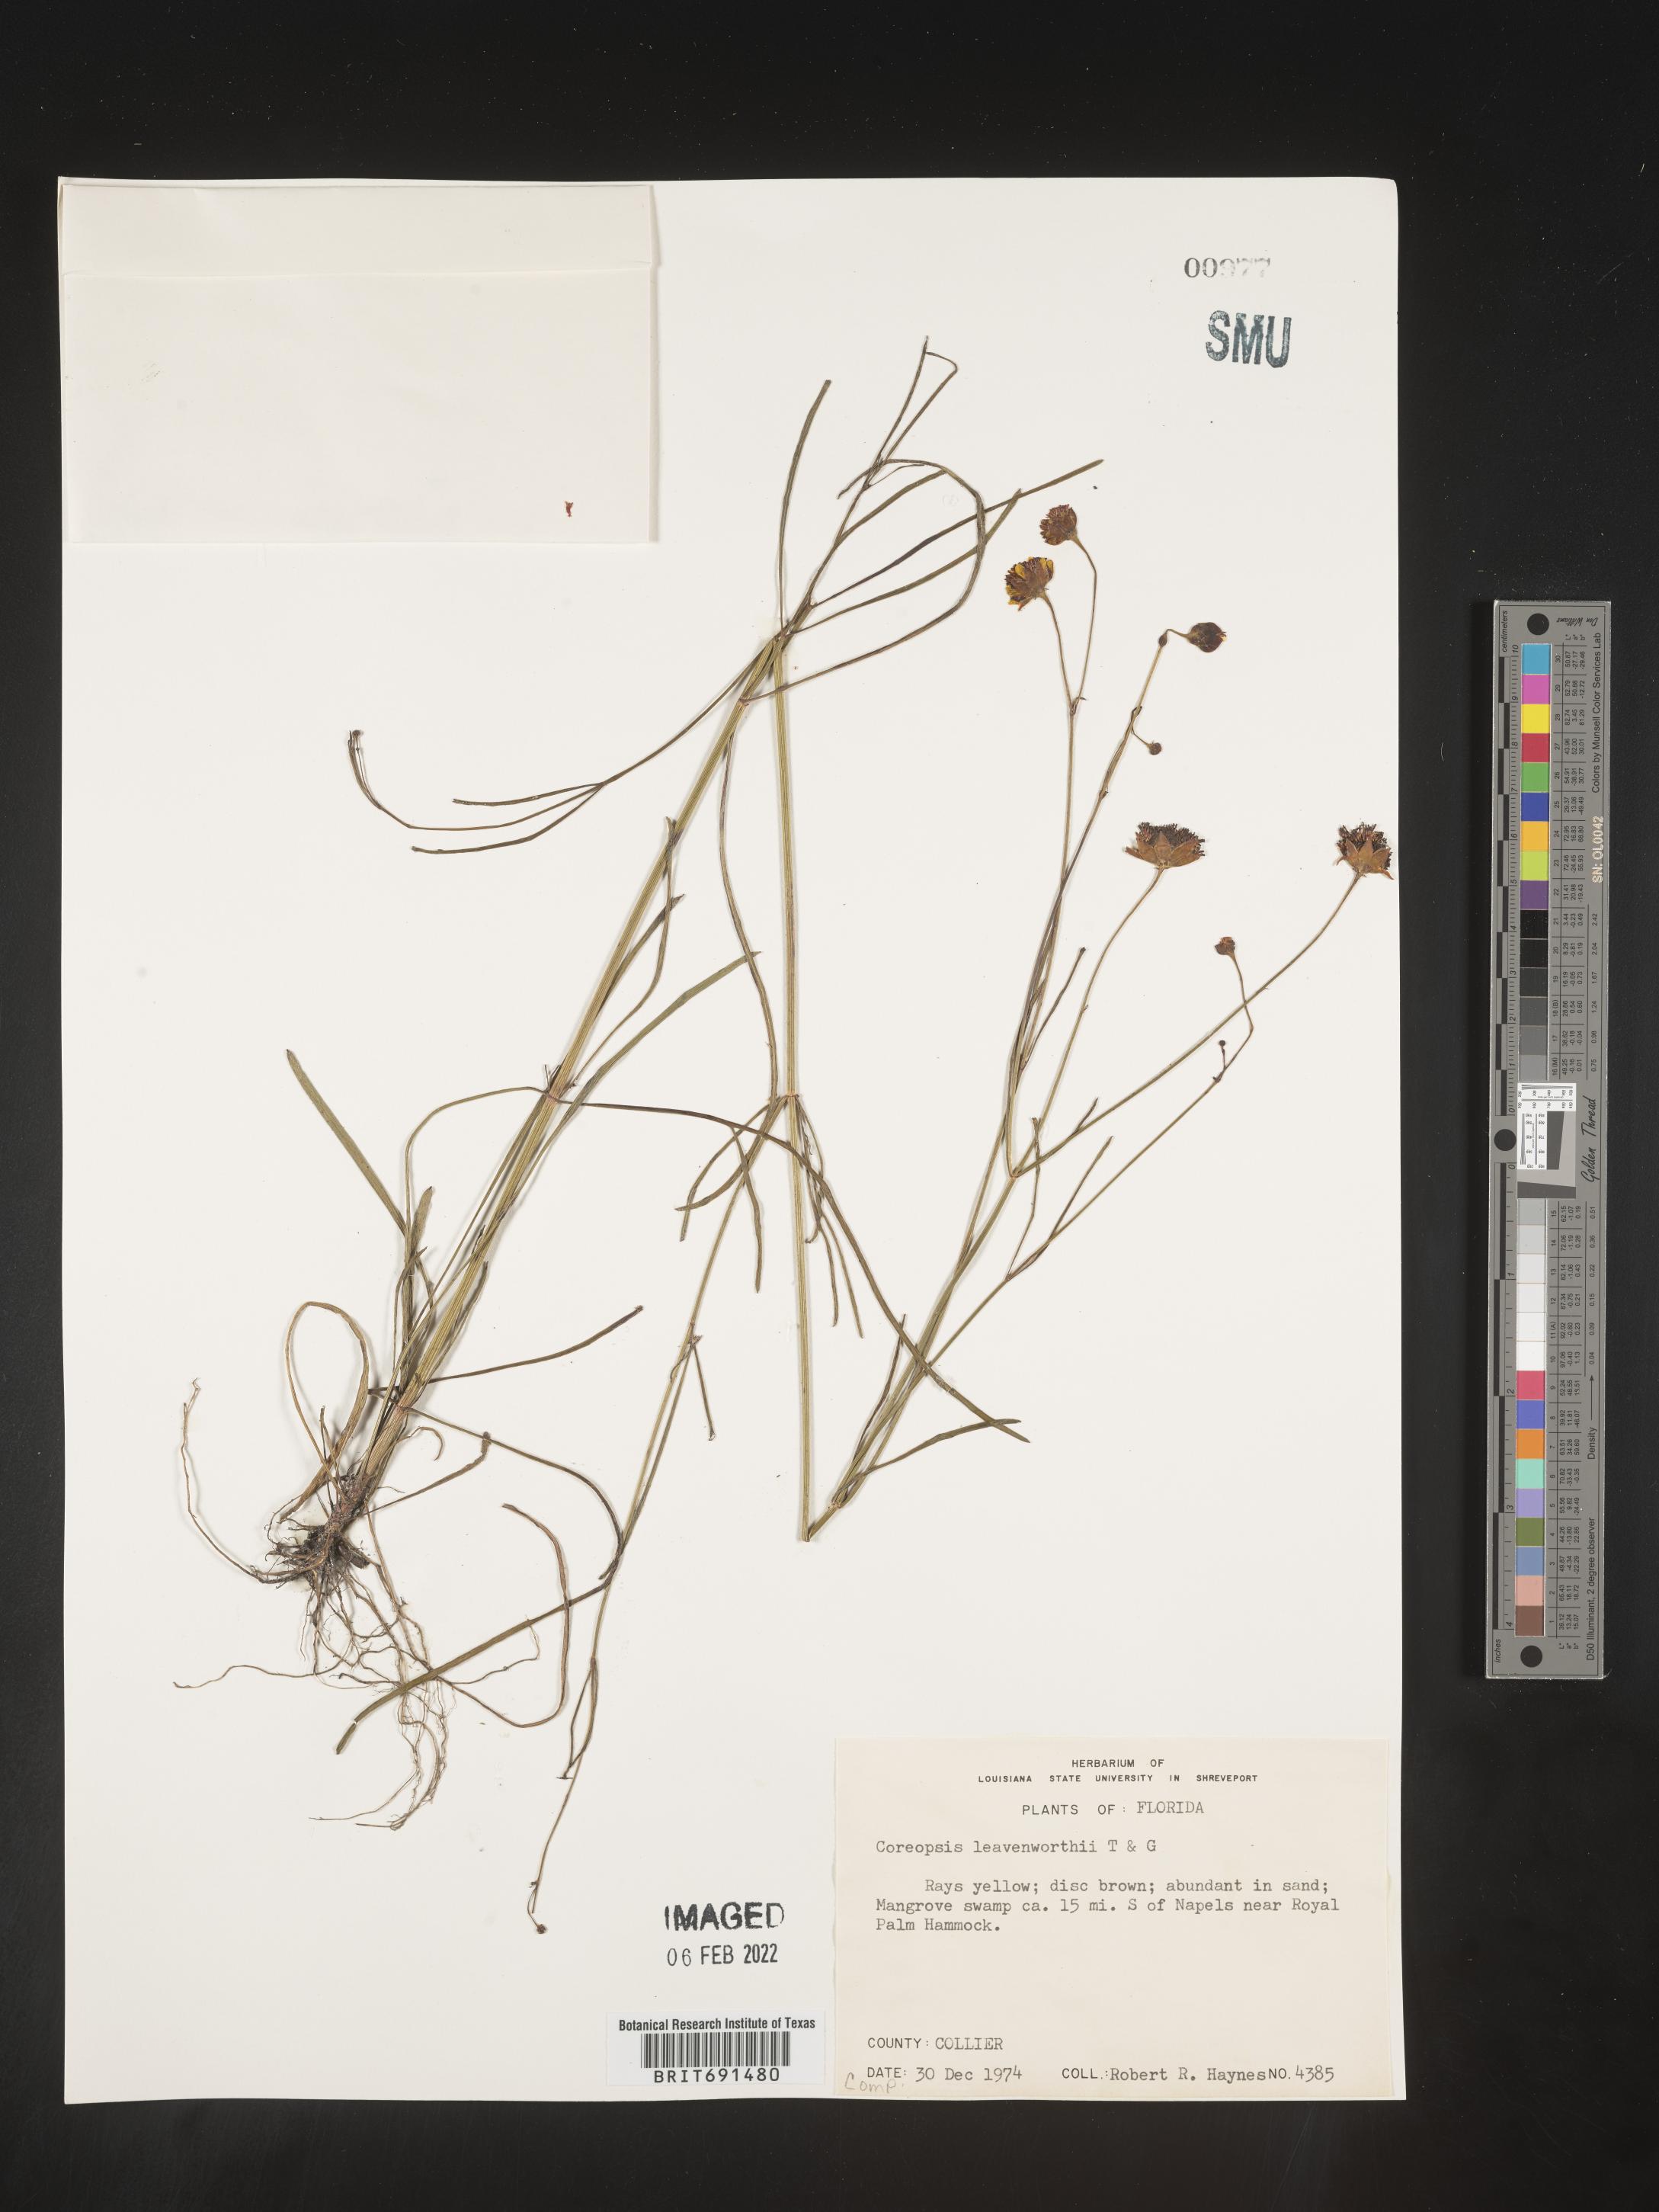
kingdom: Plantae
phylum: Tracheophyta
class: Magnoliopsida
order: Asterales
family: Asteraceae
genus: Coreopsis
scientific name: Coreopsis leavenworthii
